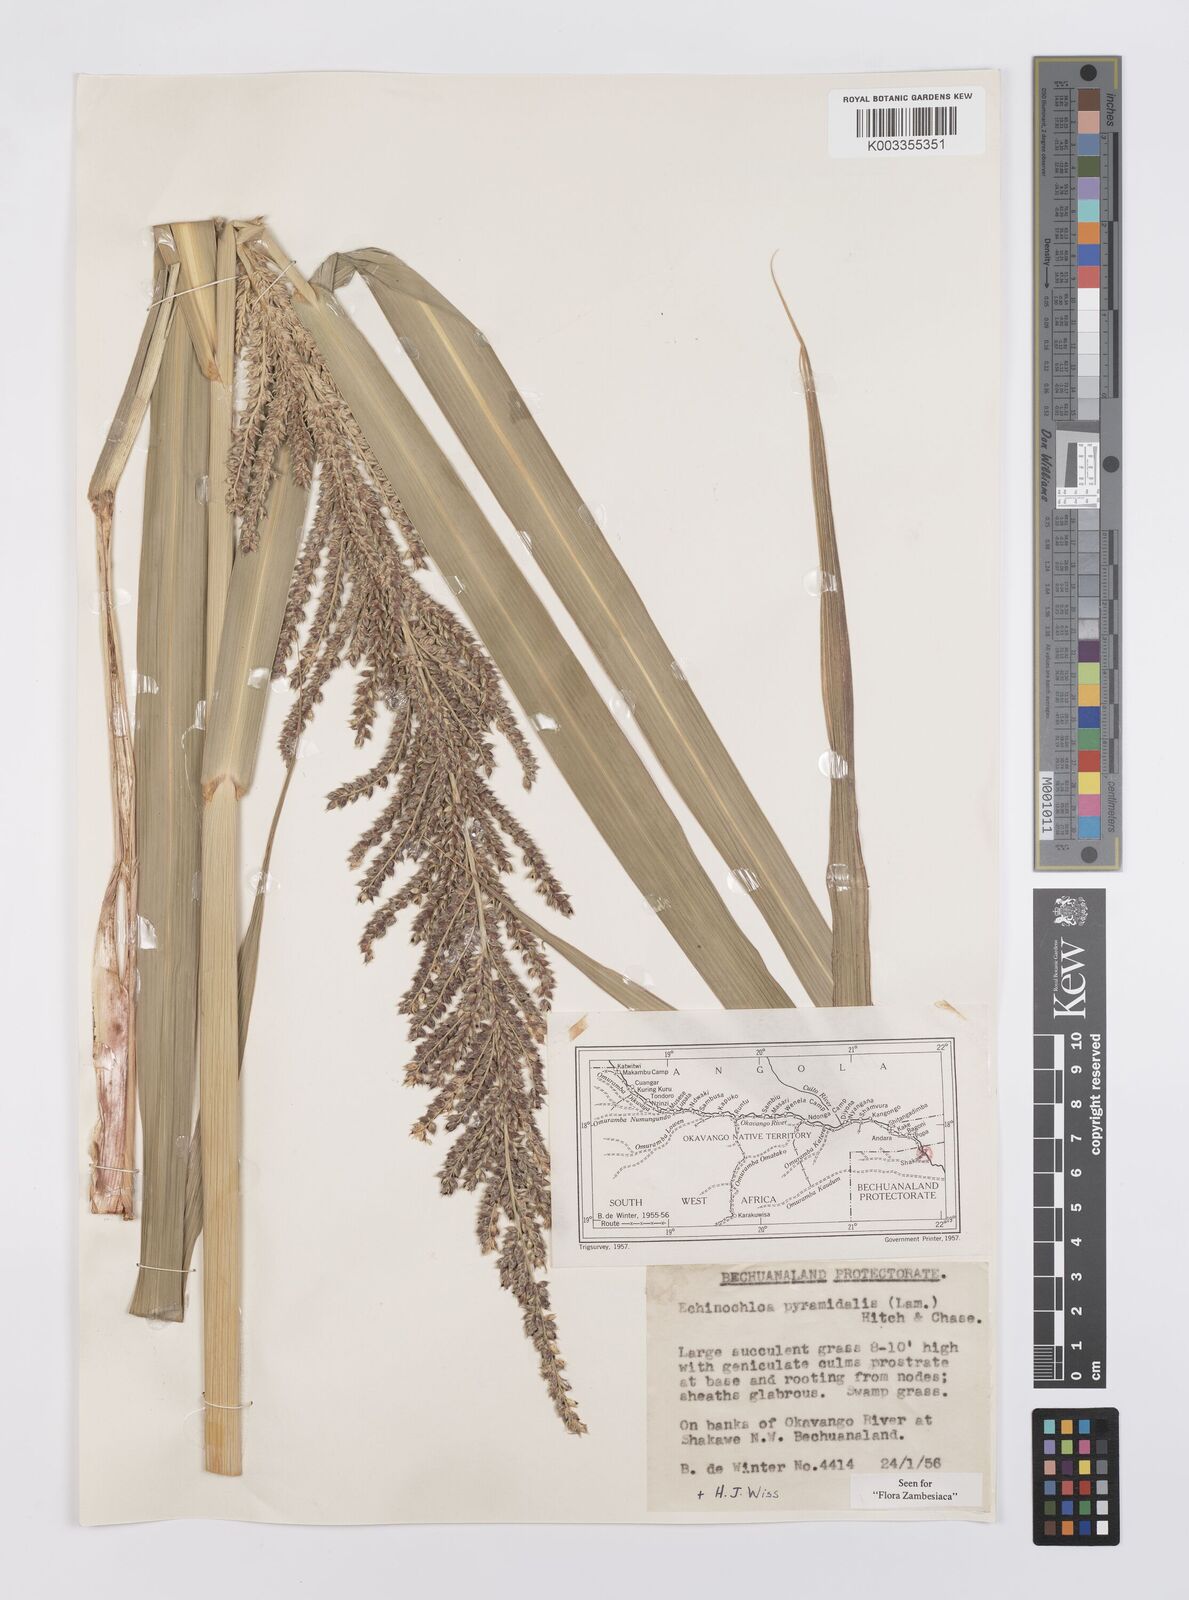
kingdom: Plantae
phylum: Tracheophyta
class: Liliopsida
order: Poales
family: Poaceae
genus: Echinochloa
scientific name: Echinochloa pyramidalis
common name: Antelope grass
